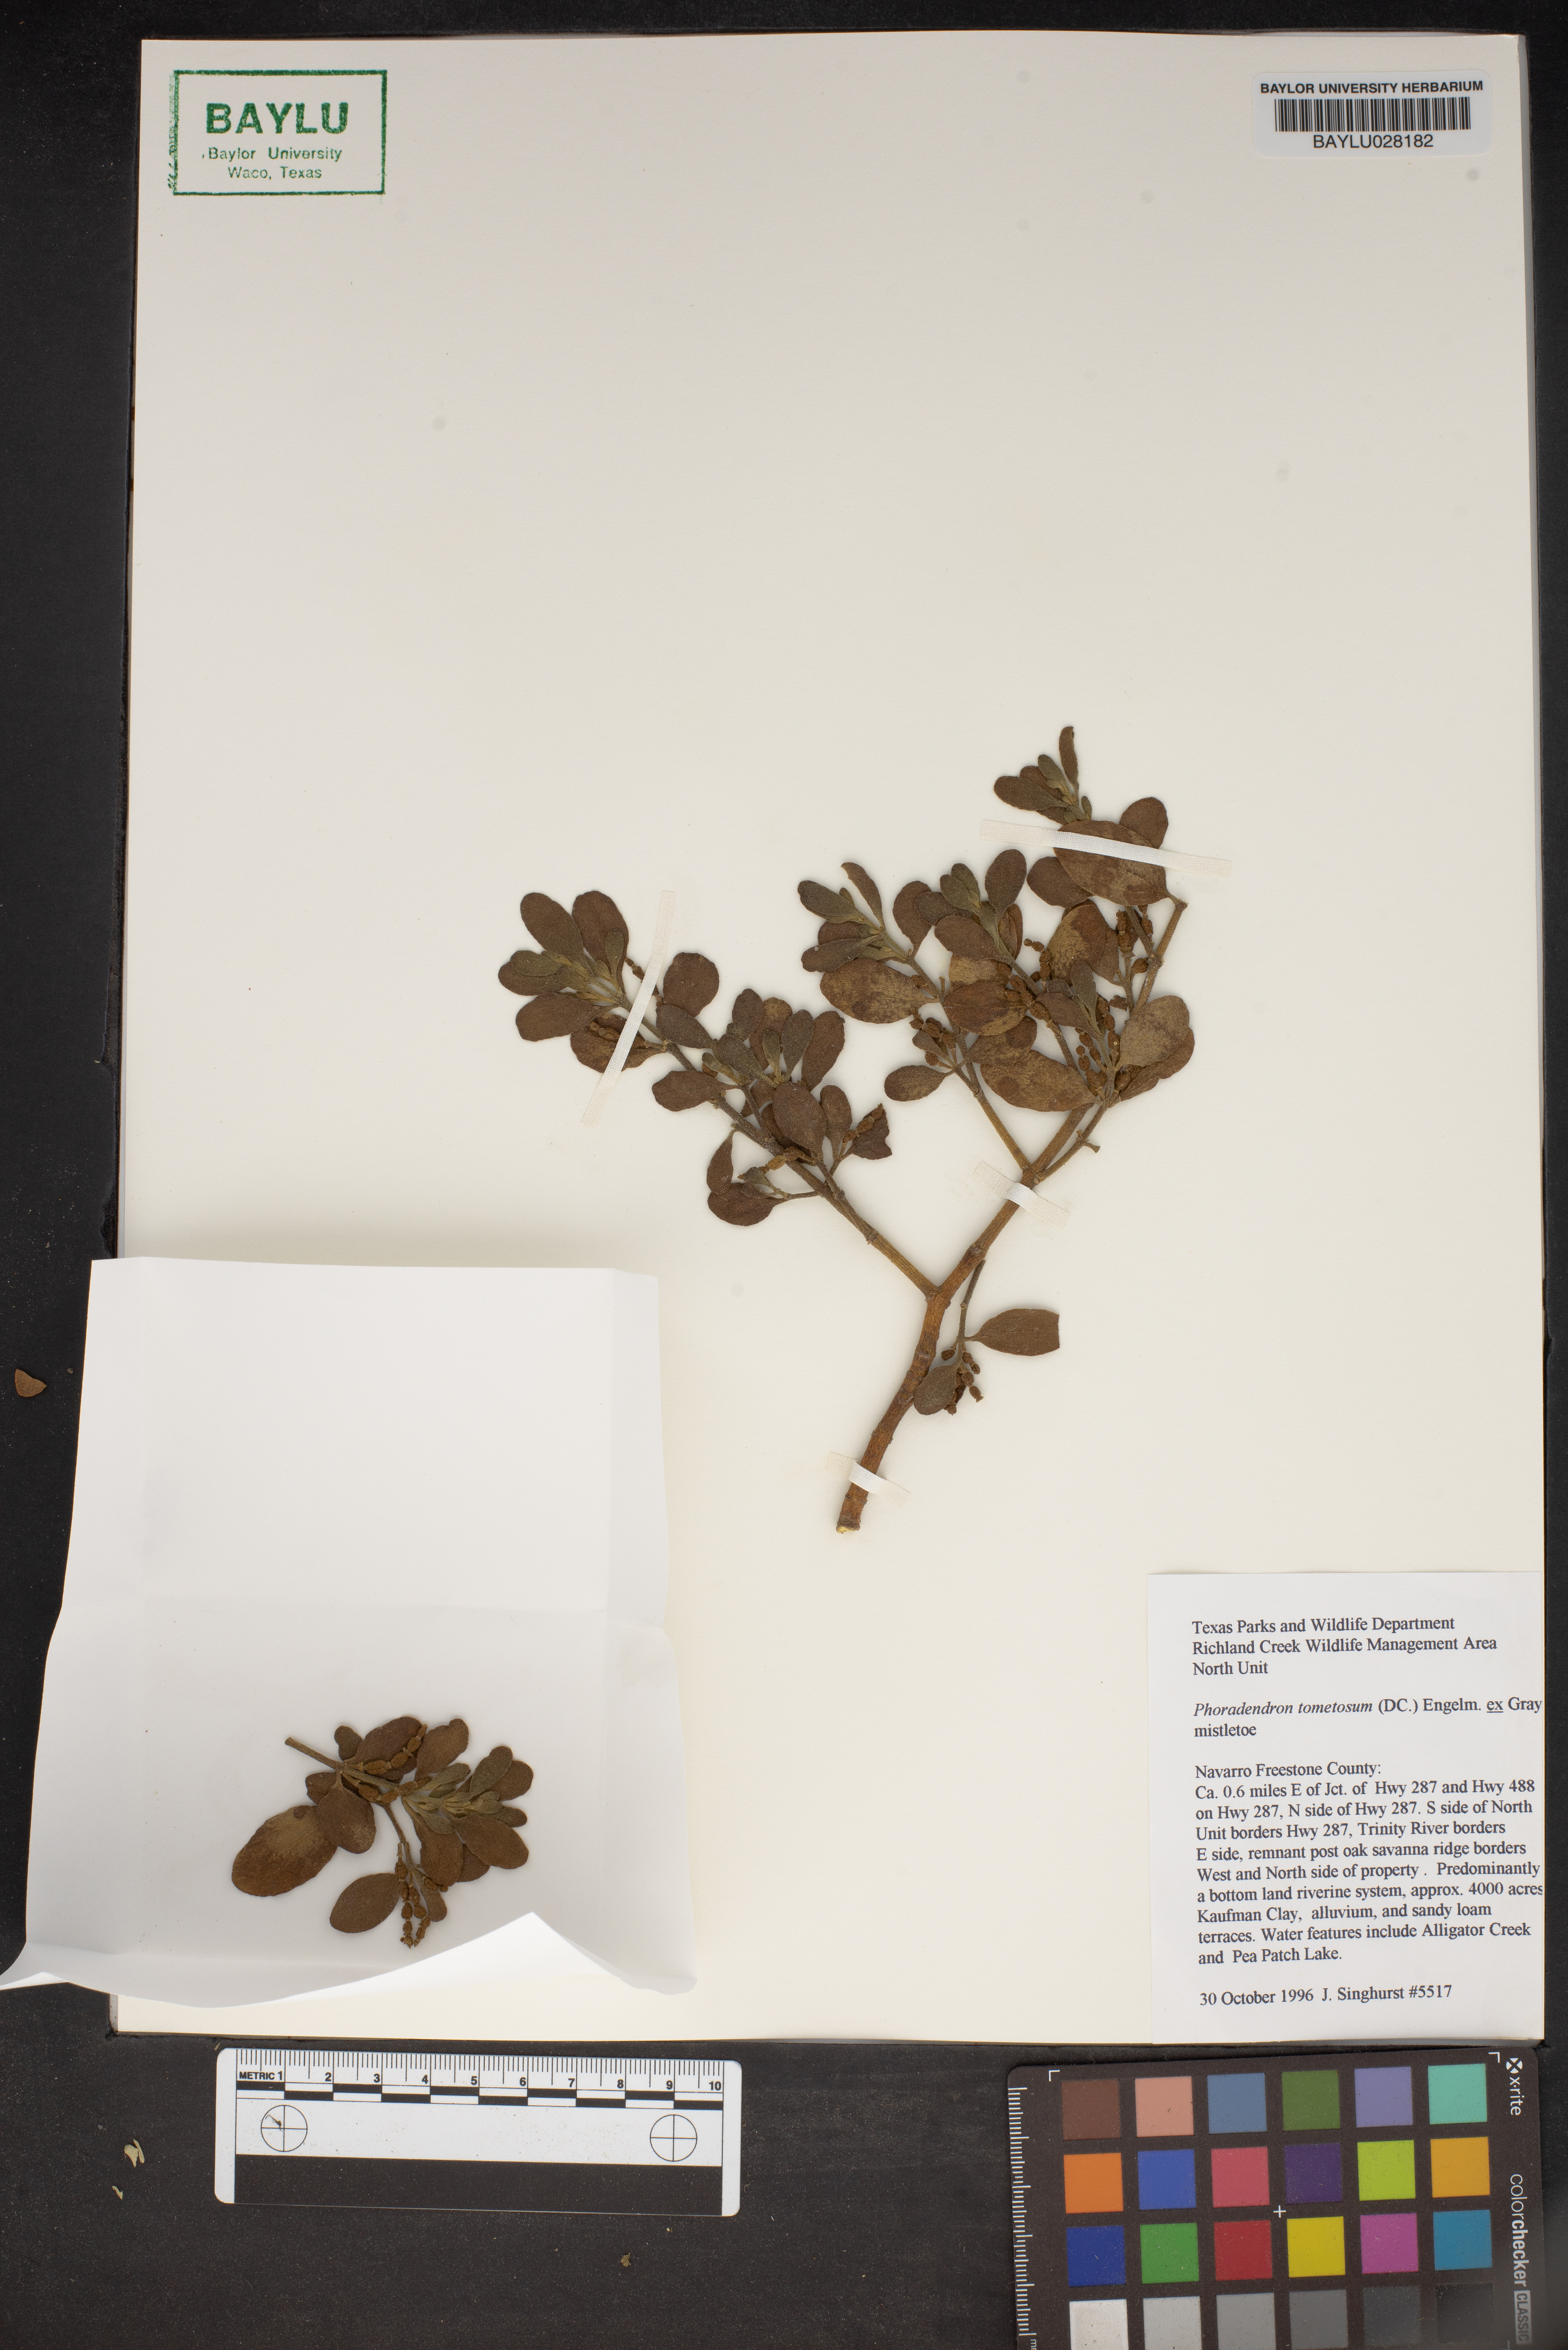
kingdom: Plantae
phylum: Tracheophyta
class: Magnoliopsida
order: Santalales
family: Viscaceae
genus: Phoradendron
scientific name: Phoradendron leucarpum
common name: Pacific mistletoe
